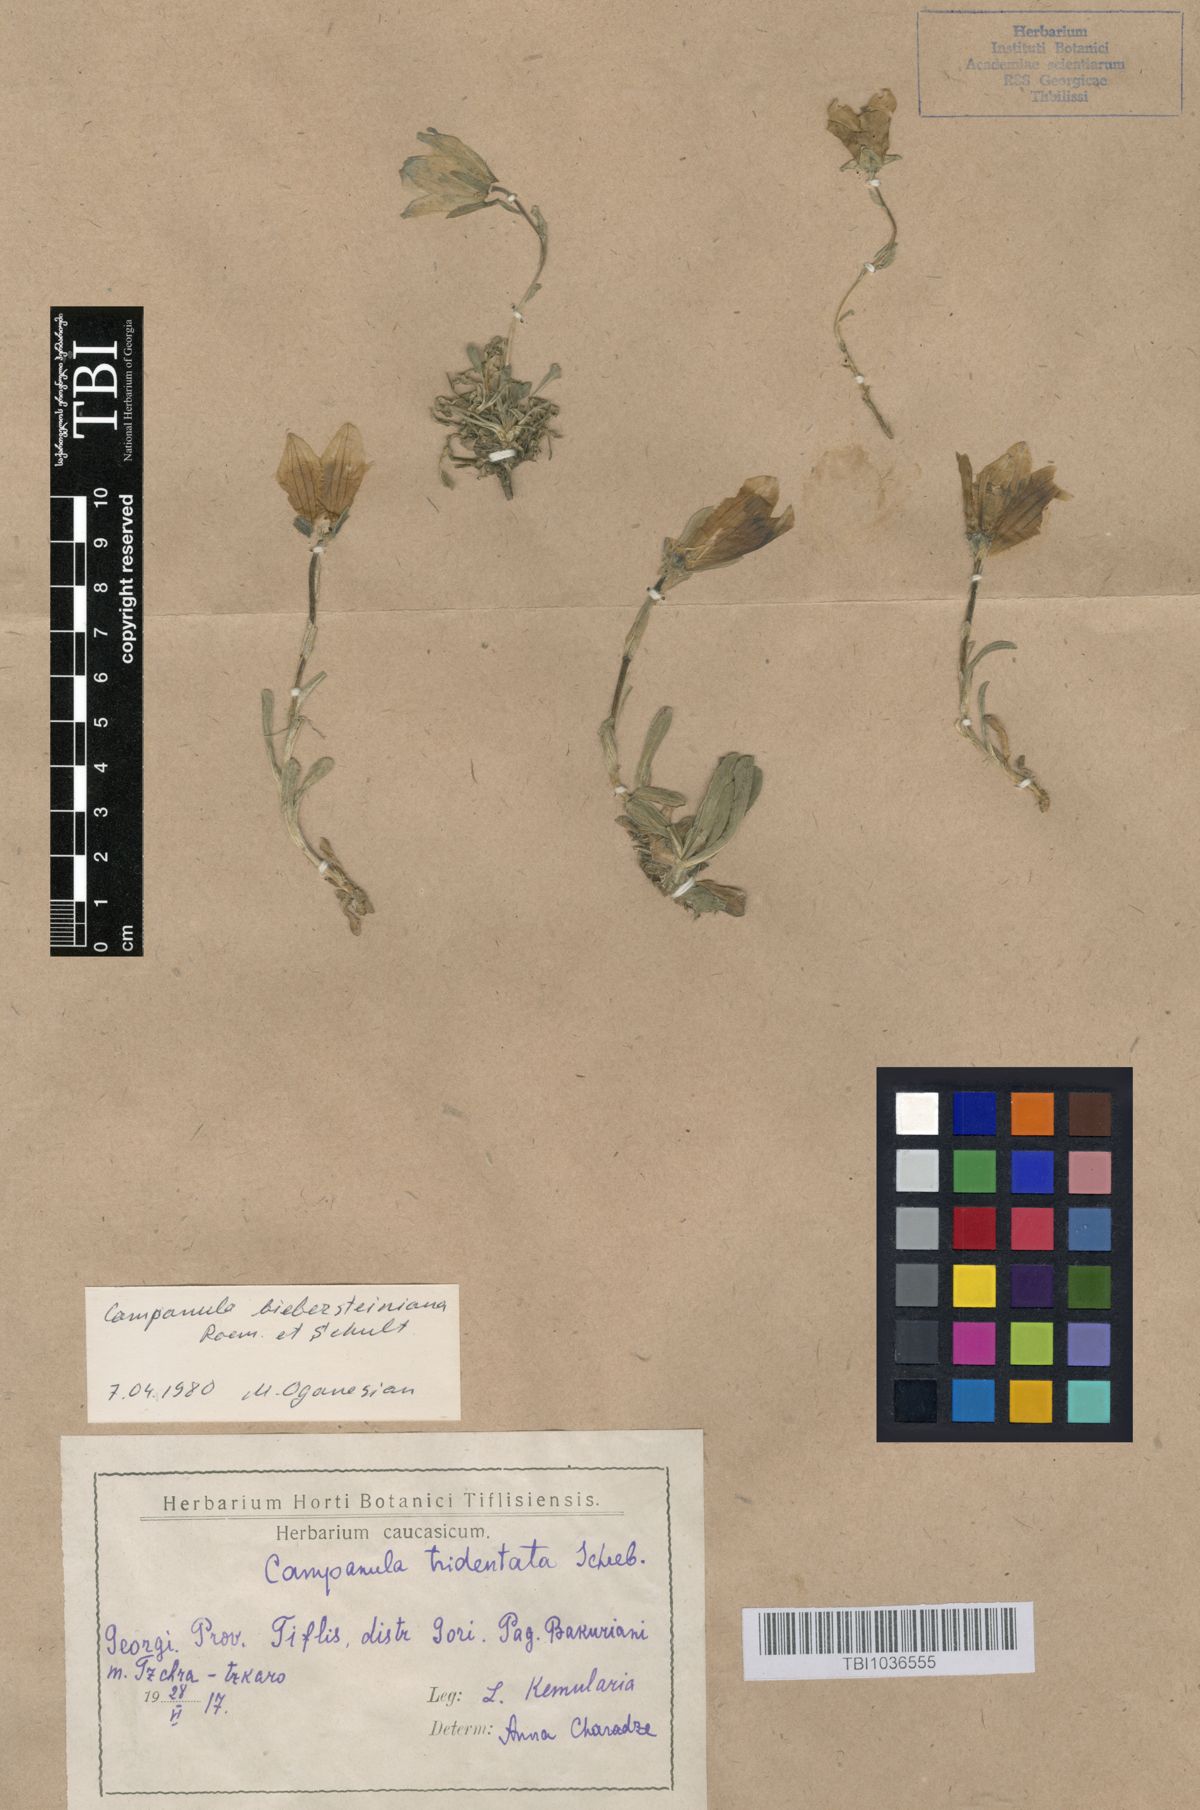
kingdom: Plantae
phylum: Tracheophyta
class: Magnoliopsida
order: Asterales
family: Campanulaceae
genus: Campanula
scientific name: Campanula tridentata
